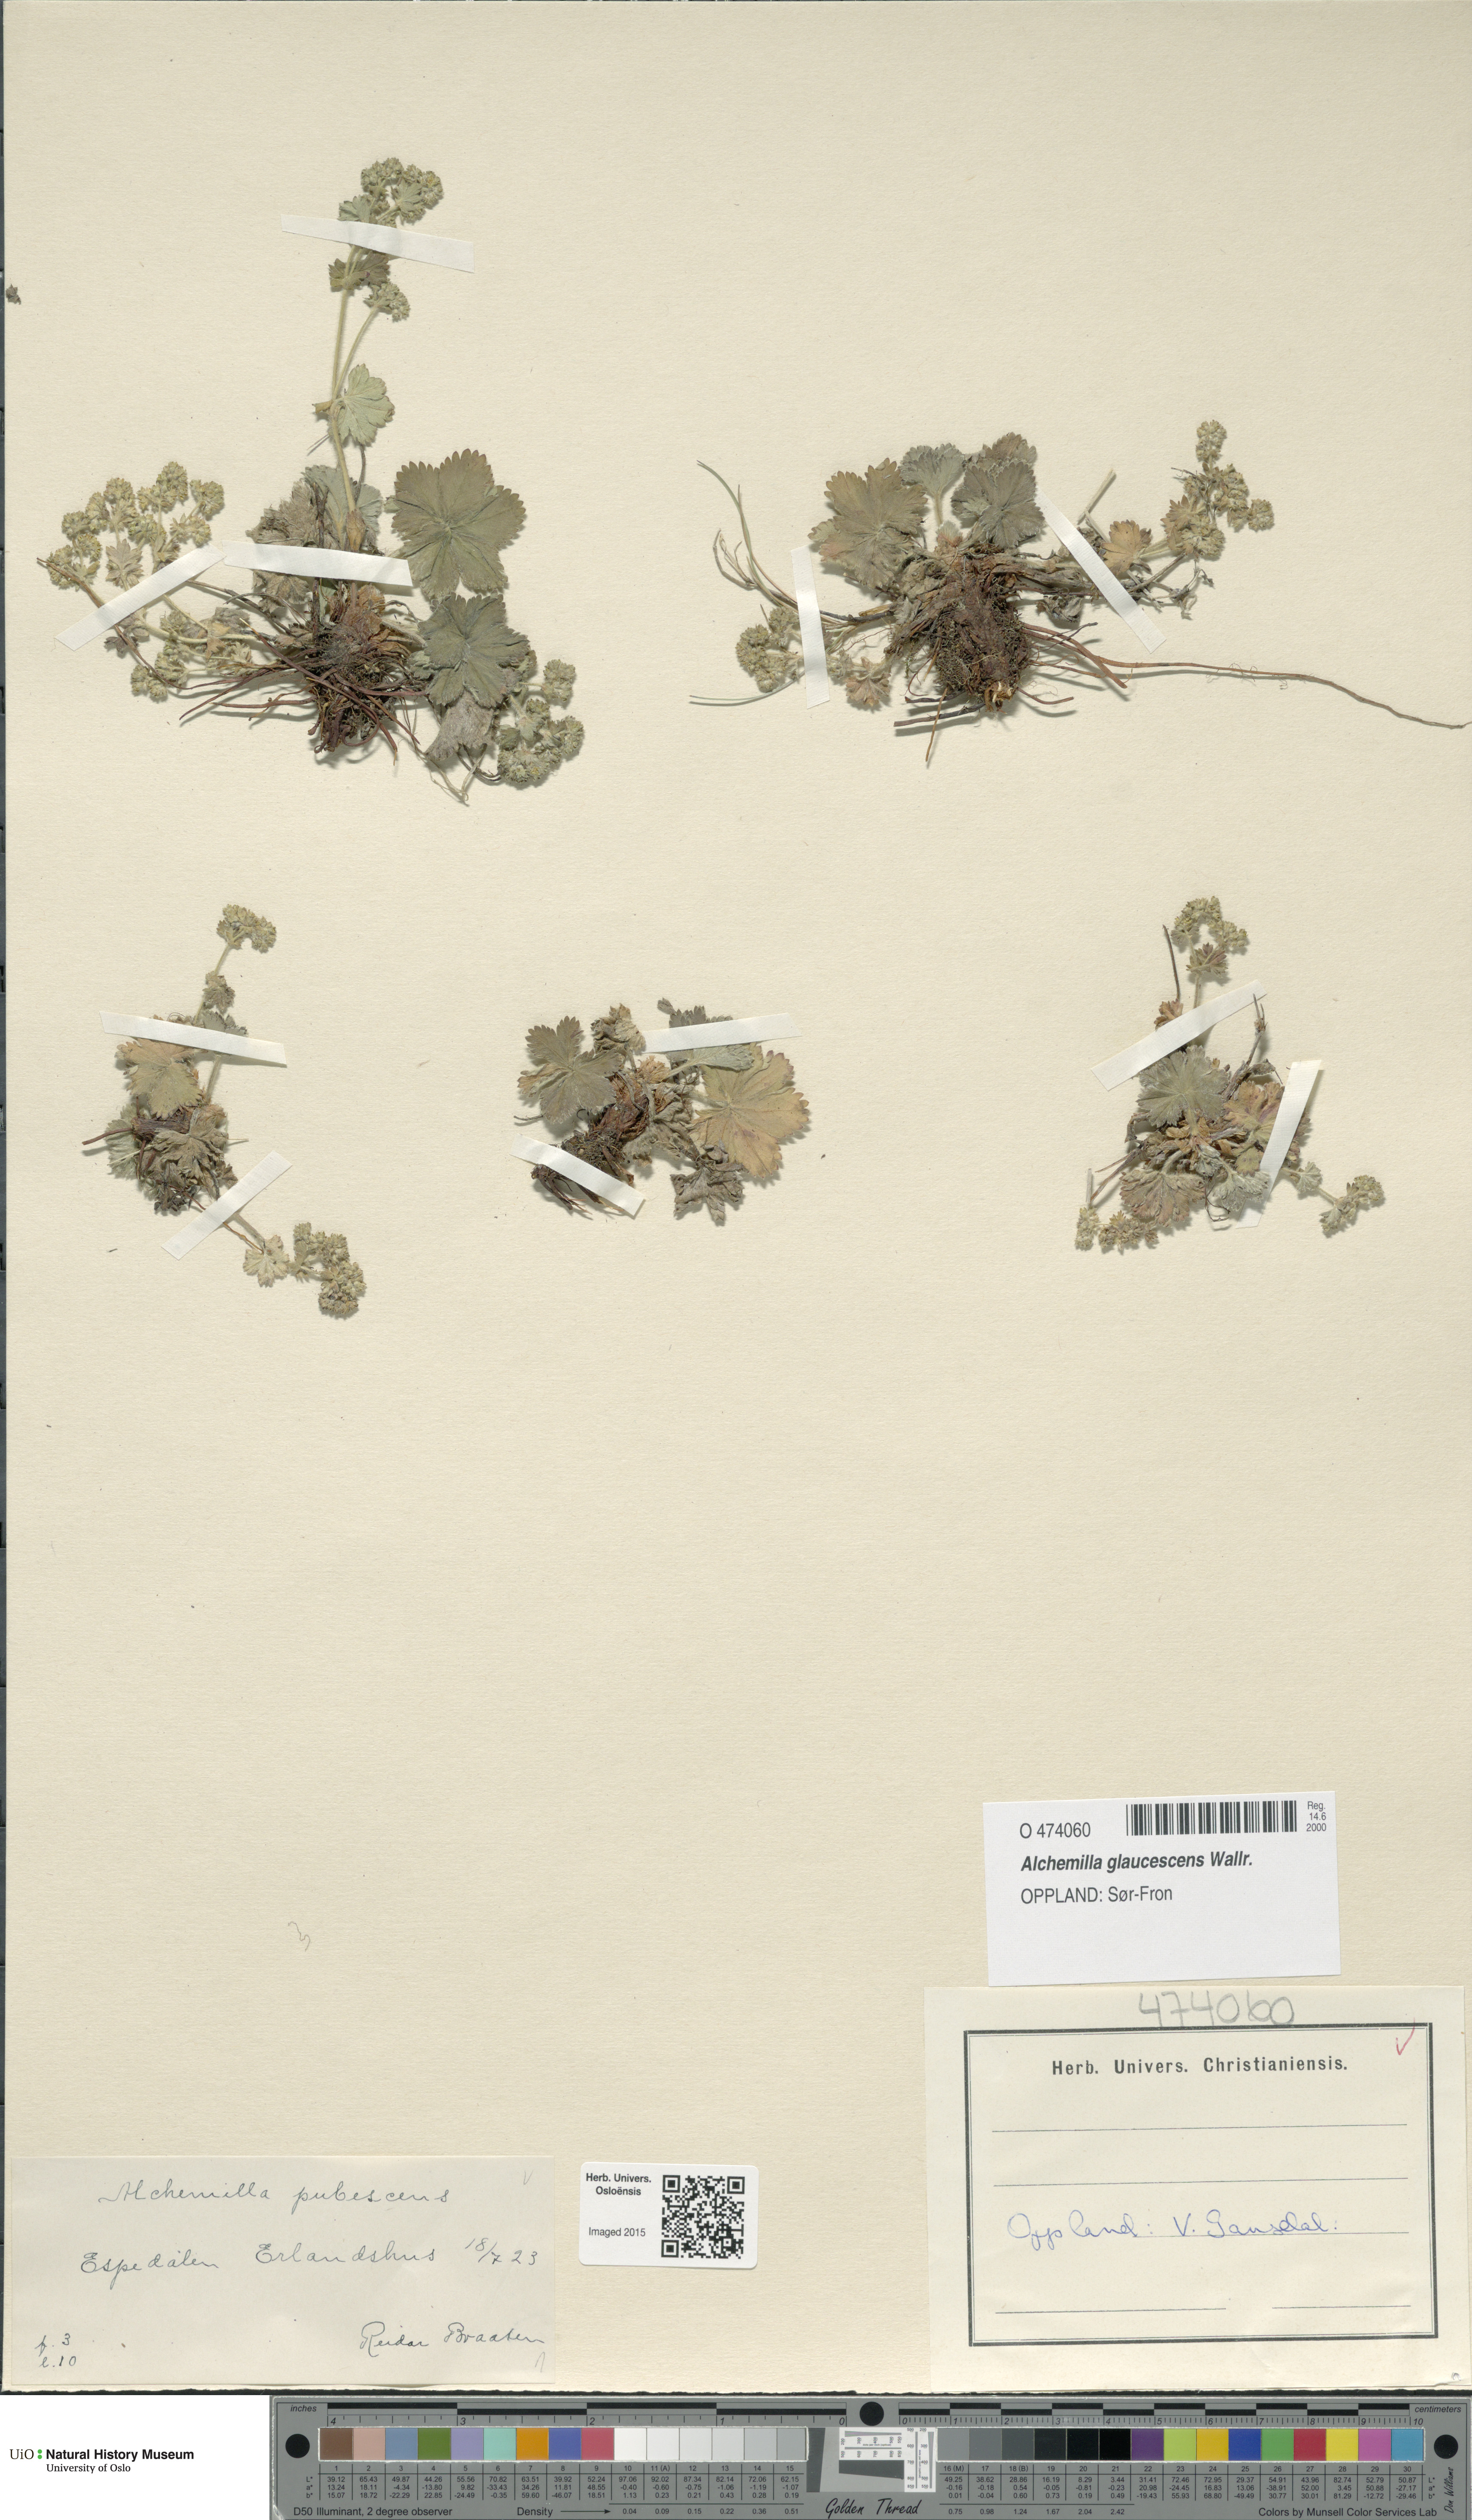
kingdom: Plantae
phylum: Tracheophyta
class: Magnoliopsida
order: Rosales
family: Rosaceae
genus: Alchemilla
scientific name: Alchemilla glaucescens
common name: Silky lady's mantle
